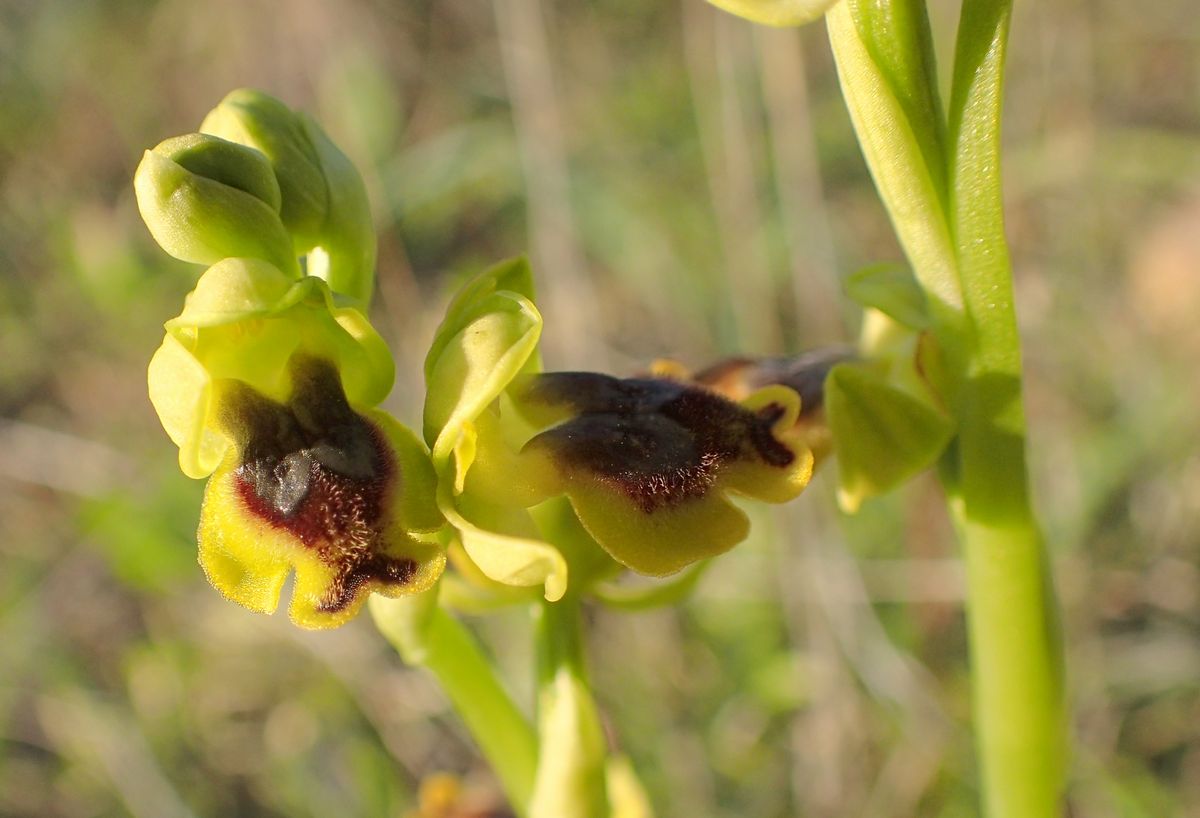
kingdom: Plantae
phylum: Tracheophyta
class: Liliopsida
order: Asparagales
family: Orchidaceae
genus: Ophrys
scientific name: Ophrys lutea
